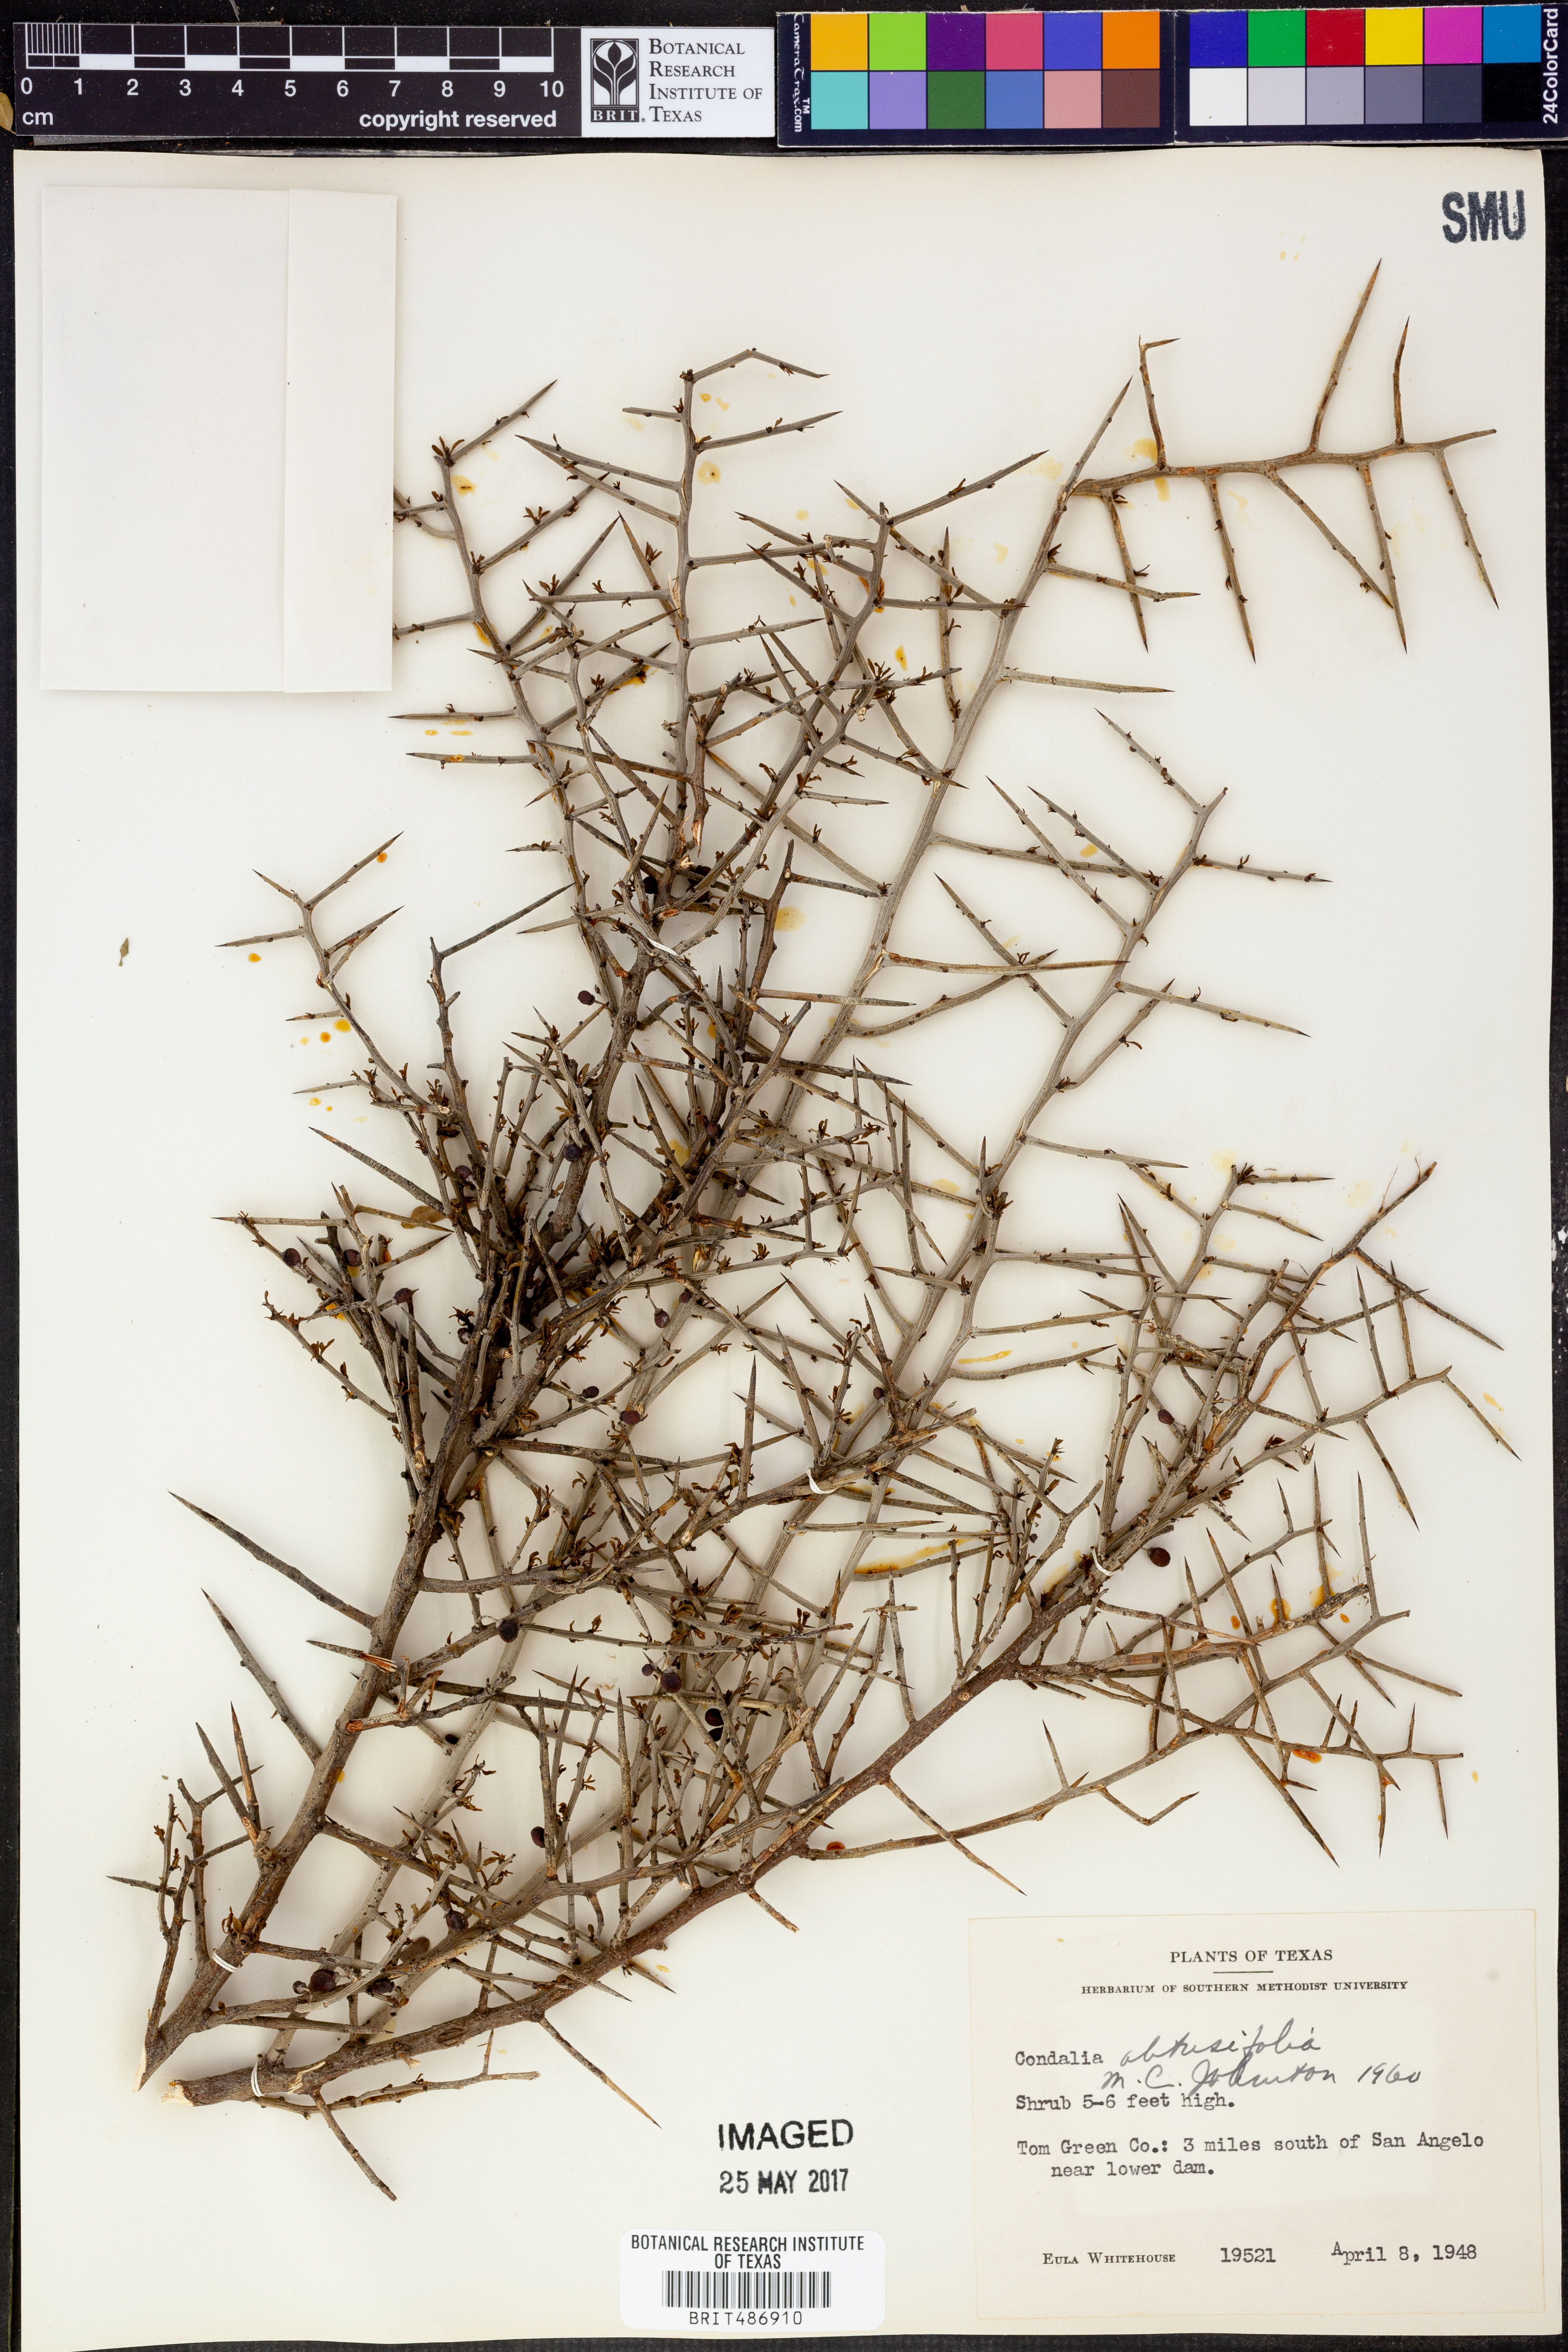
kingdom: Plantae
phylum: Tracheophyta
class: Magnoliopsida
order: Rosales
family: Rhamnaceae
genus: Sarcomphalus
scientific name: Sarcomphalus obtusifolius
